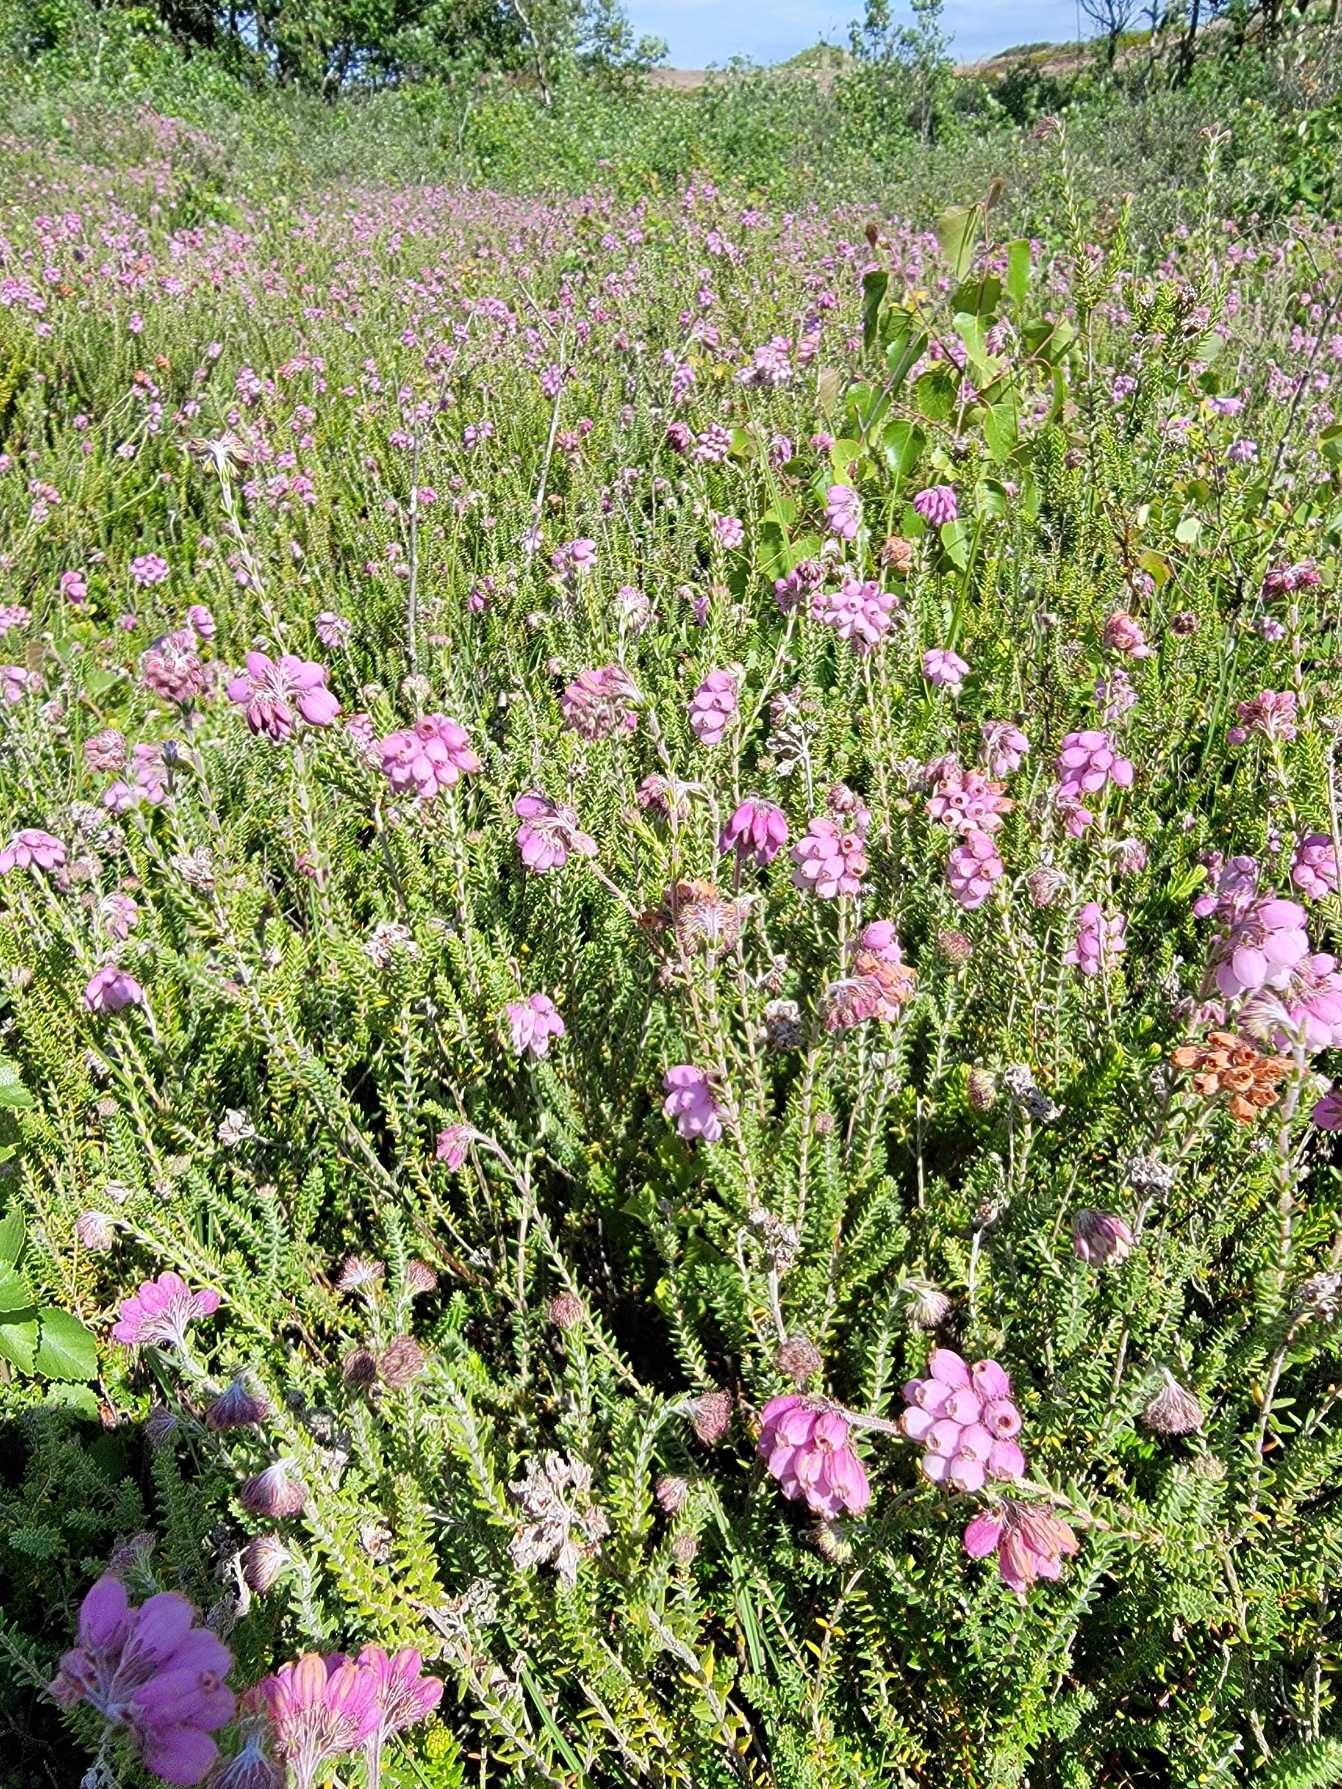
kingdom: Plantae
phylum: Tracheophyta
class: Magnoliopsida
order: Ericales
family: Ericaceae
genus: Erica
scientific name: Erica tetralix
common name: Klokkelyng
